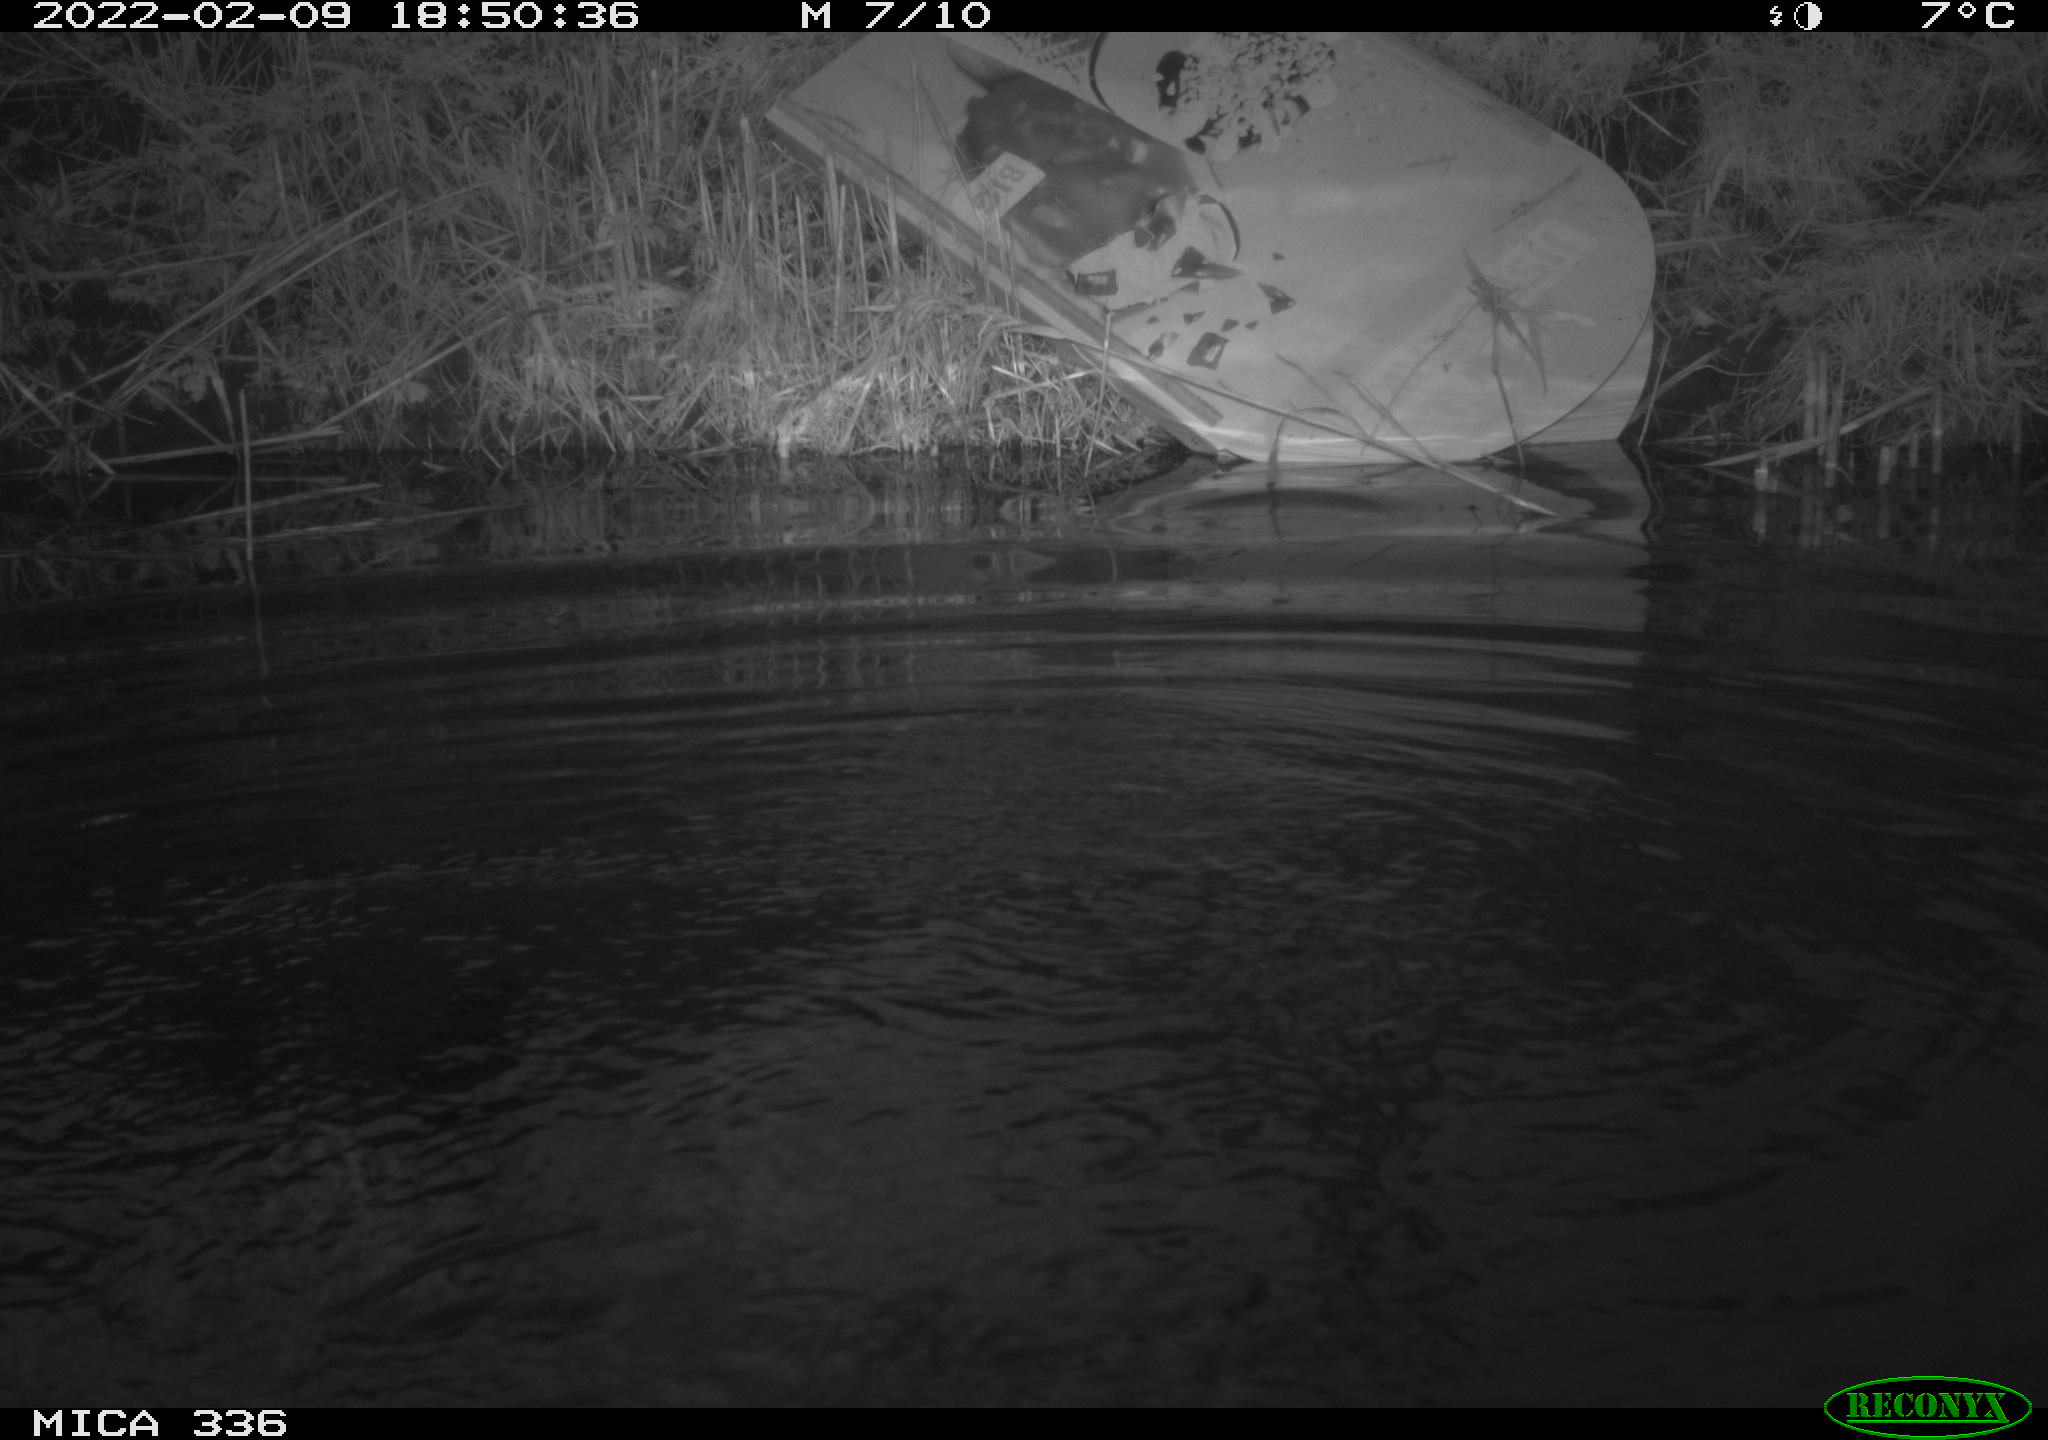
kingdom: Animalia
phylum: Chordata
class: Aves
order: Suliformes
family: Phalacrocoracidae
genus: Phalacrocorax
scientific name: Phalacrocorax carbo
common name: Great cormorant
